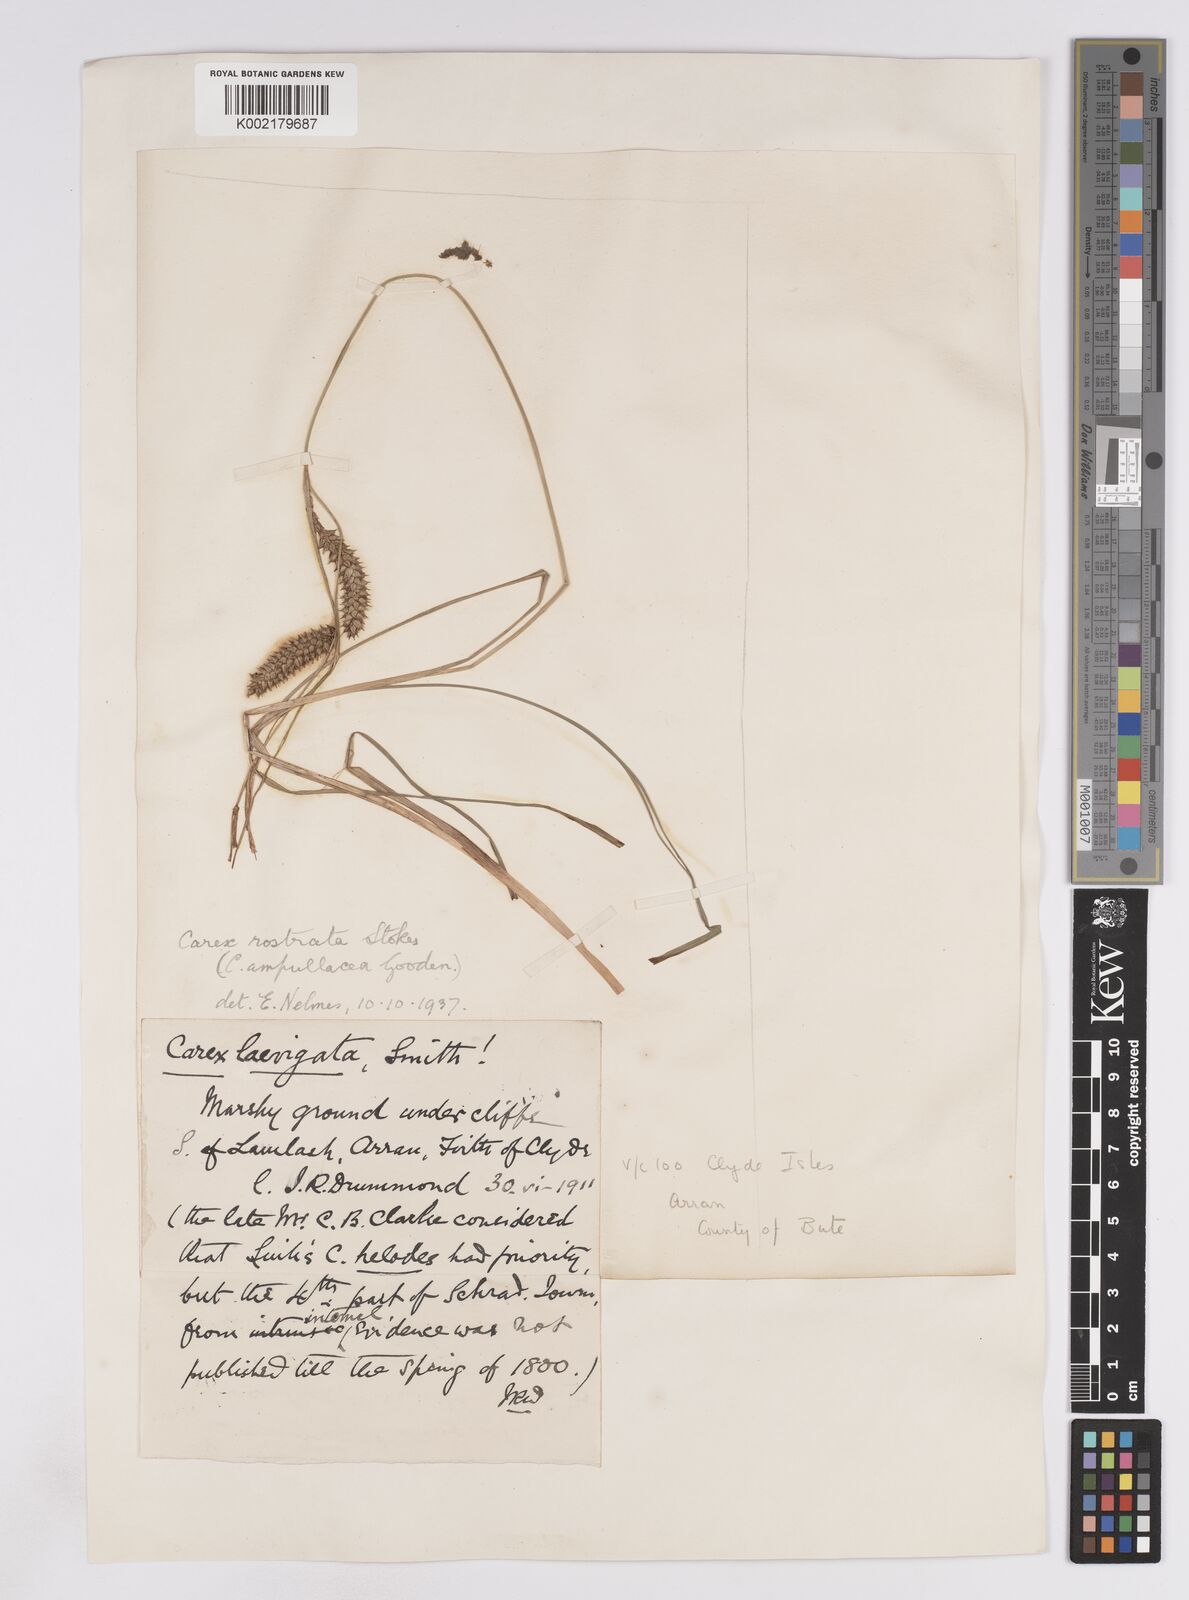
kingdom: Plantae
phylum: Tracheophyta
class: Liliopsida
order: Poales
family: Cyperaceae
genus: Carex
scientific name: Carex rostrata
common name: Bottle sedge
